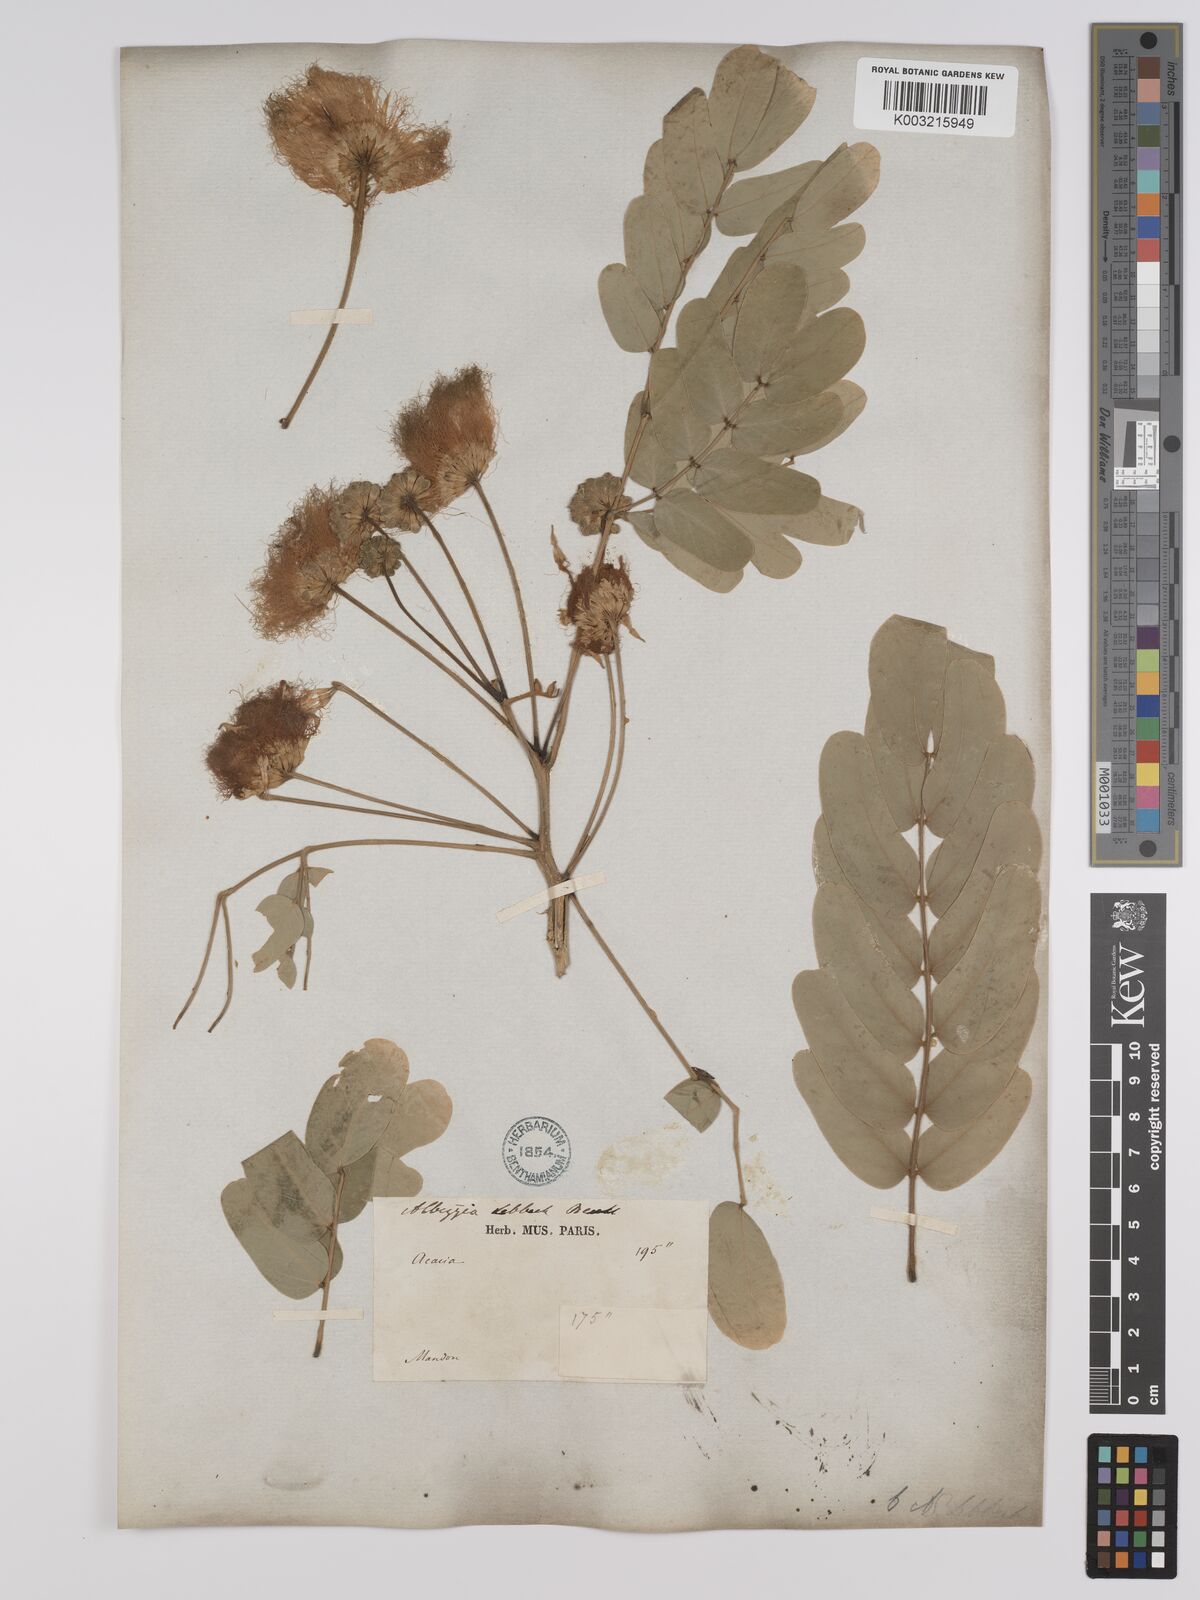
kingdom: Plantae
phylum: Tracheophyta
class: Magnoliopsida
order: Fabales
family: Fabaceae
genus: Albizia
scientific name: Albizia
